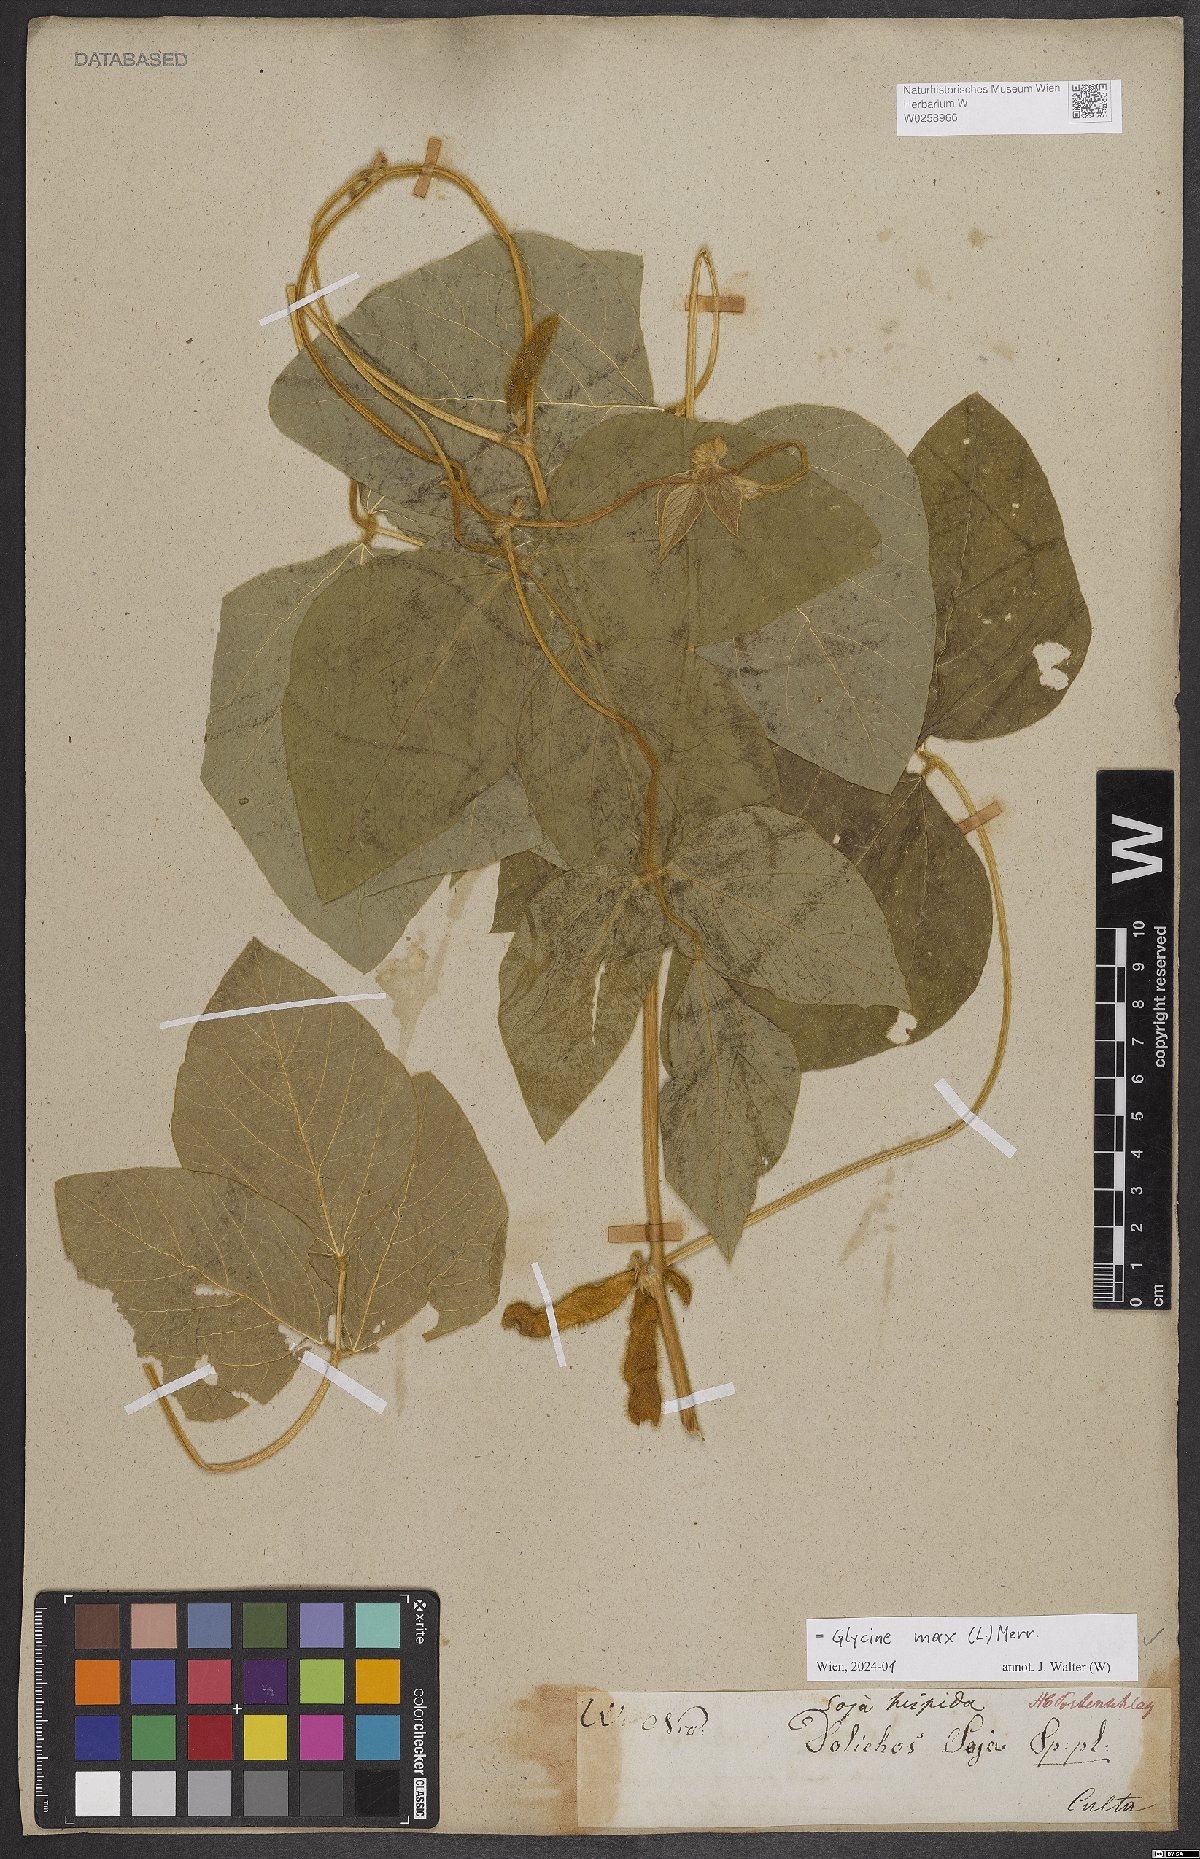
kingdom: Plantae
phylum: Tracheophyta
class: Magnoliopsida
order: Fabales
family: Fabaceae
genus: Glycine
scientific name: Glycine max
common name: Soya-bean
